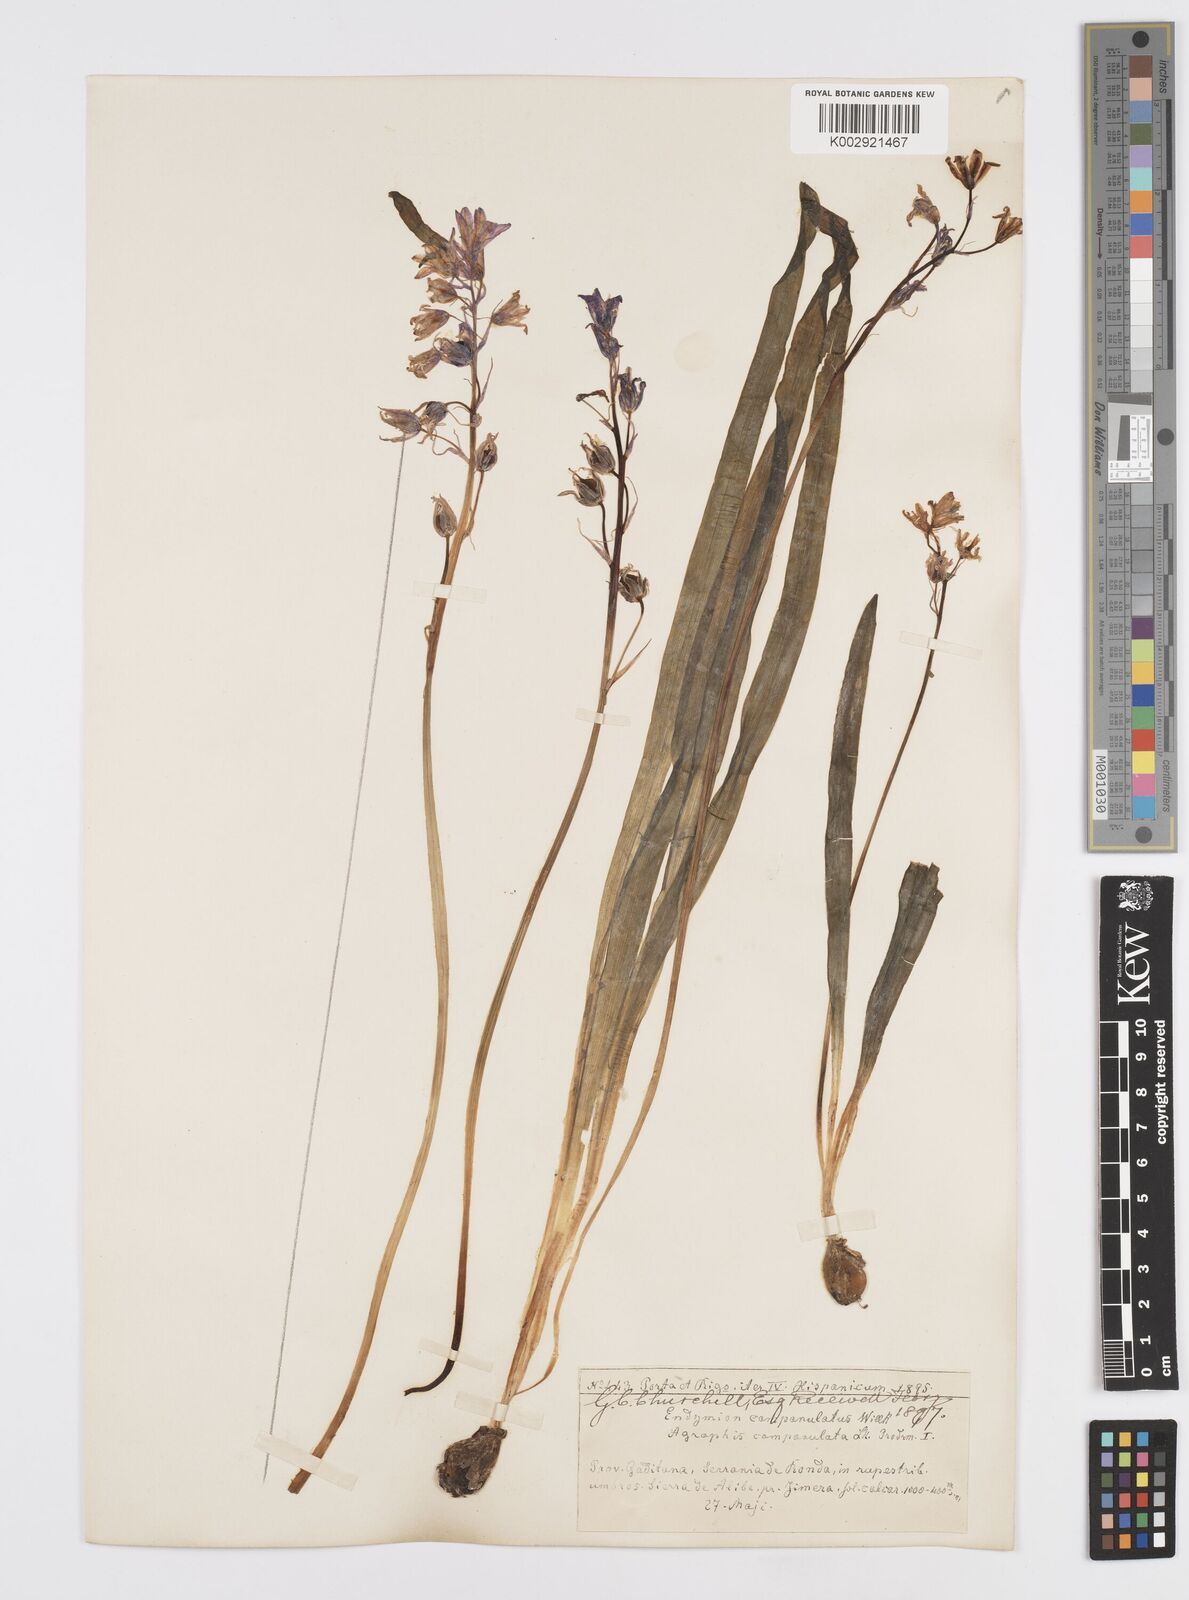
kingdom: Plantae
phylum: Tracheophyta
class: Liliopsida
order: Asparagales
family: Asparagaceae
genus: Hyacinthoides
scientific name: Hyacinthoides hispanica
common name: Spanish bluebell
